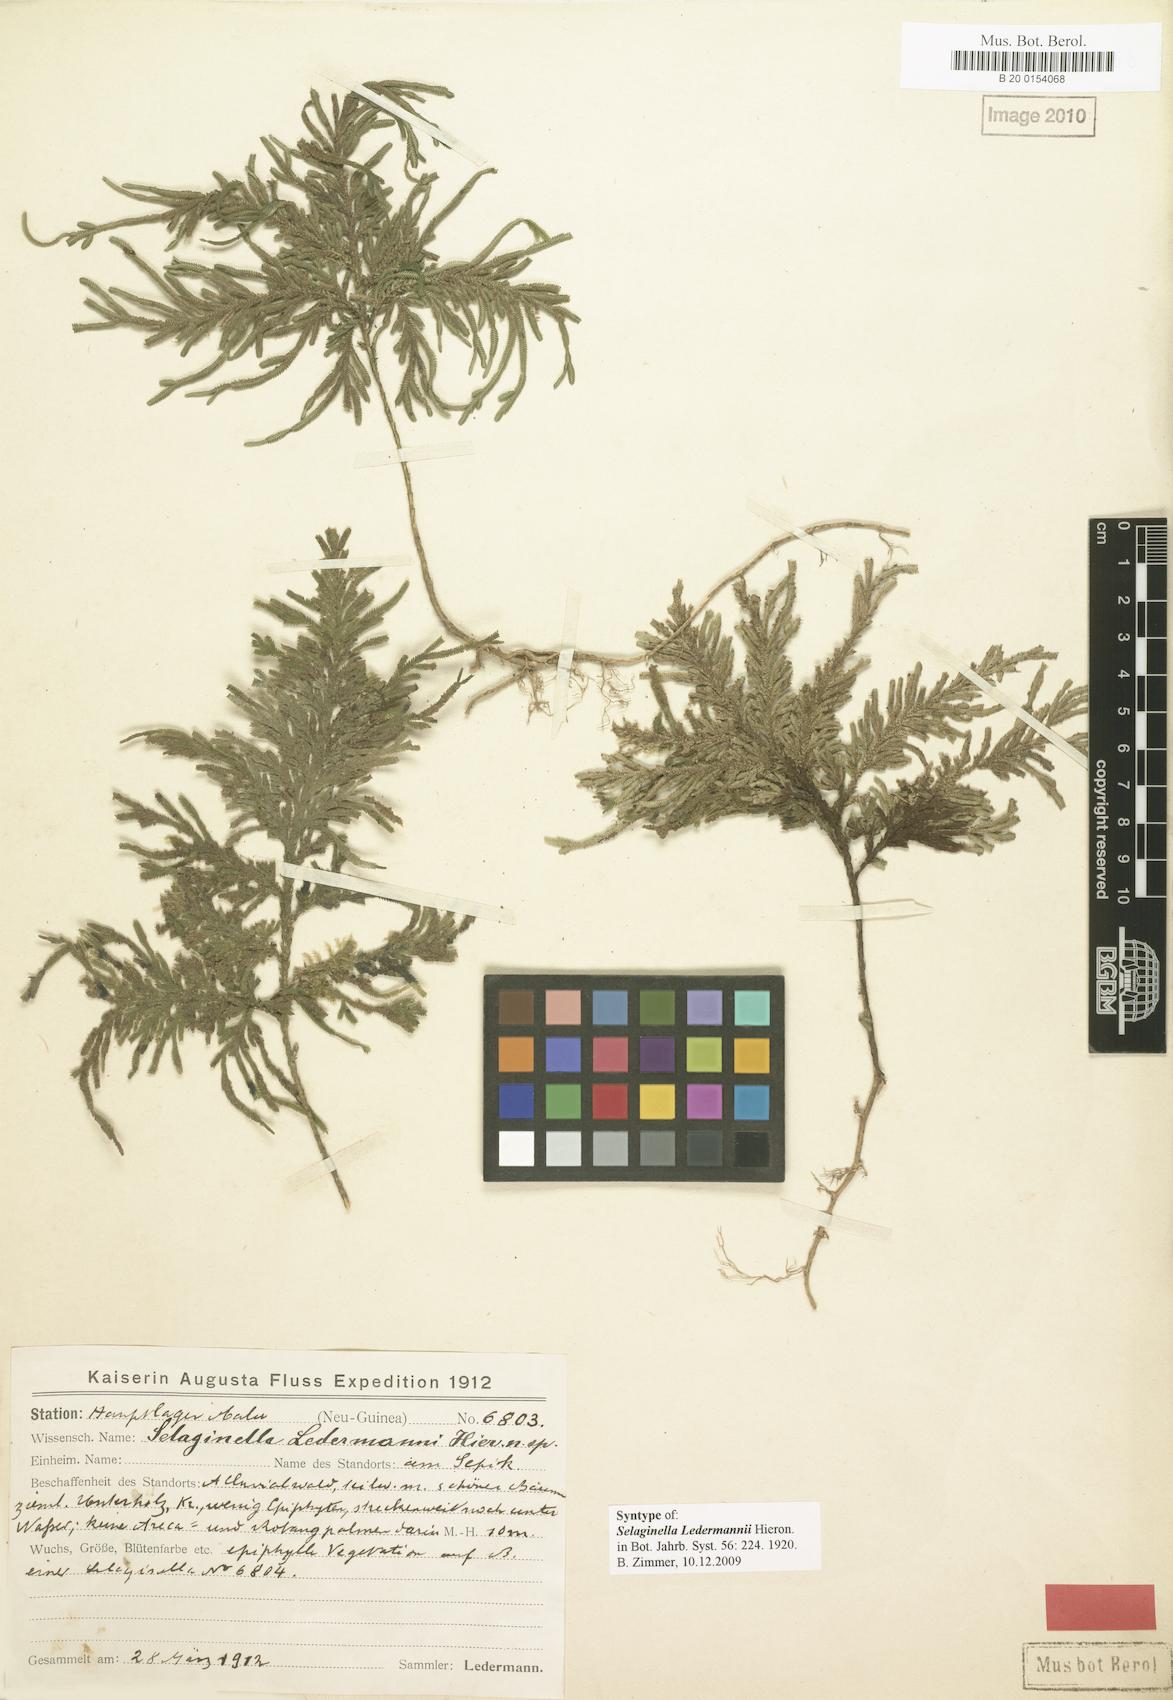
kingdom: Plantae
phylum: Tracheophyta
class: Lycopodiopsida
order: Selaginellales
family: Selaginellaceae
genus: Selaginella
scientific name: Selaginella ledermannii
